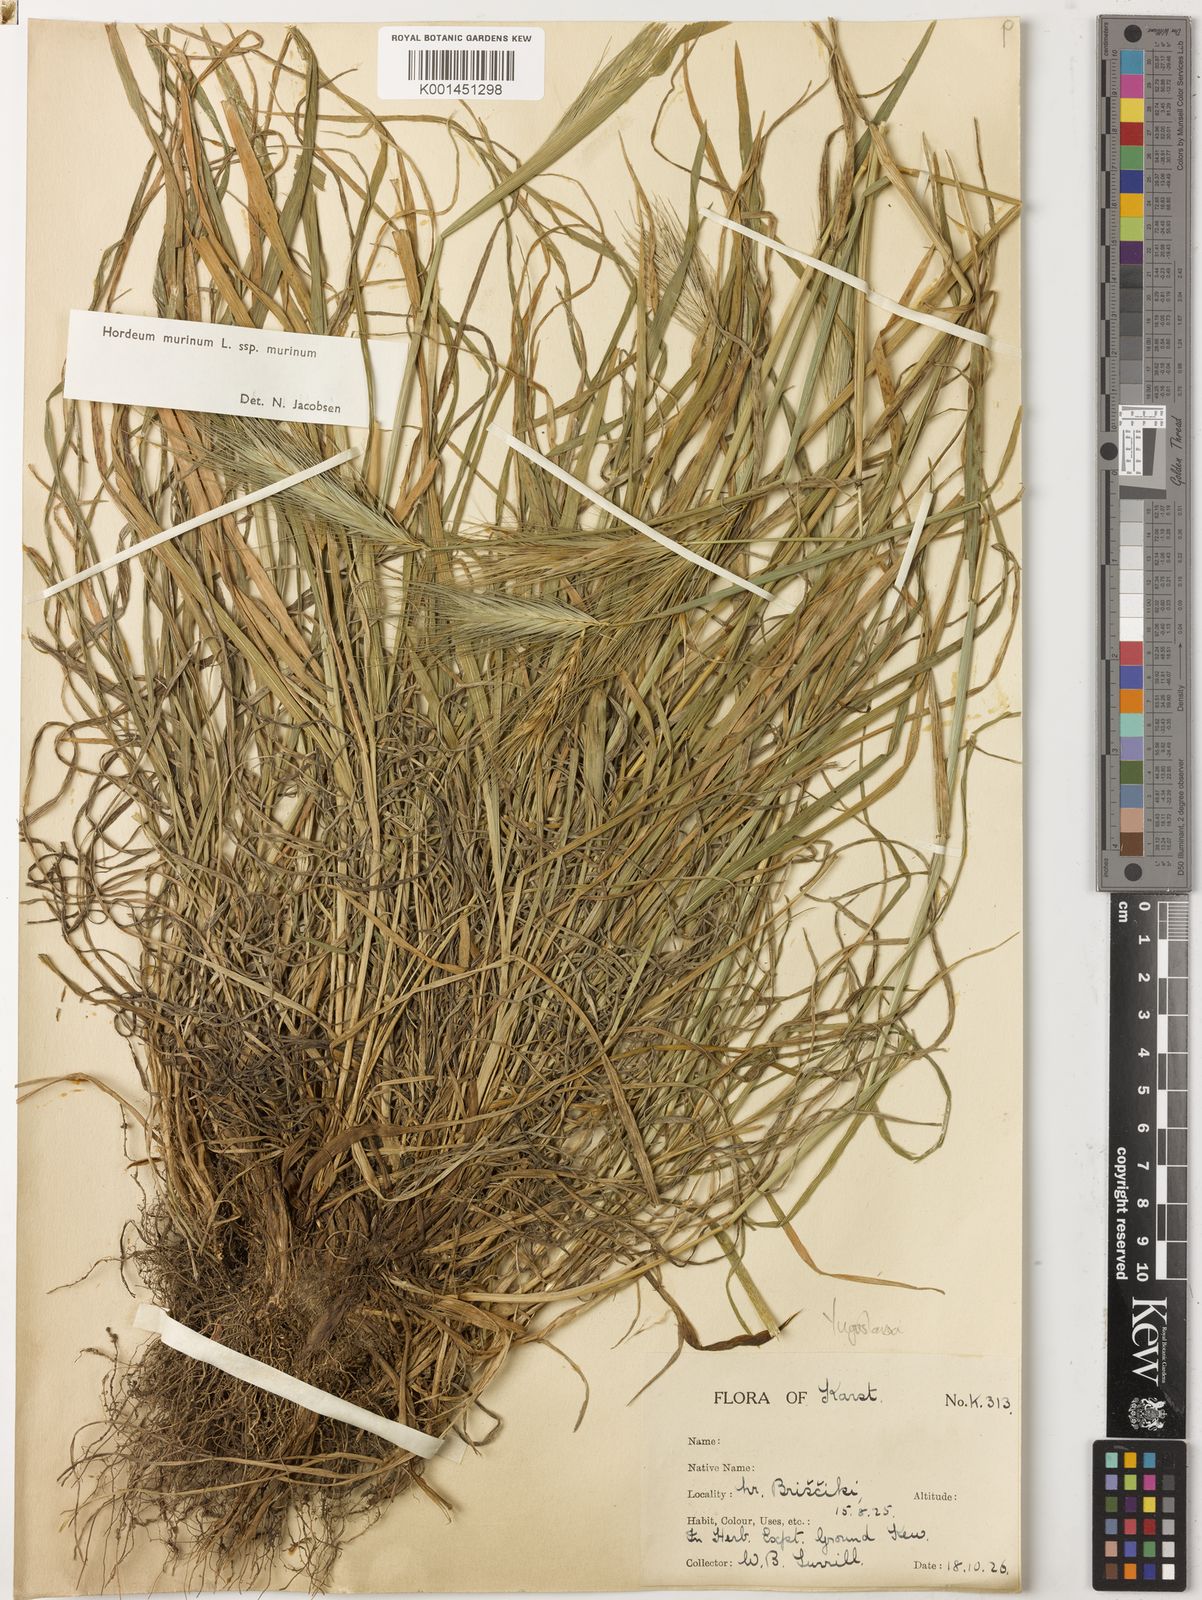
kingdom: Plantae
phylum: Tracheophyta
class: Liliopsida
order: Poales
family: Poaceae
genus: Hordeum
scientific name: Hordeum murinum
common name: Wall barley
